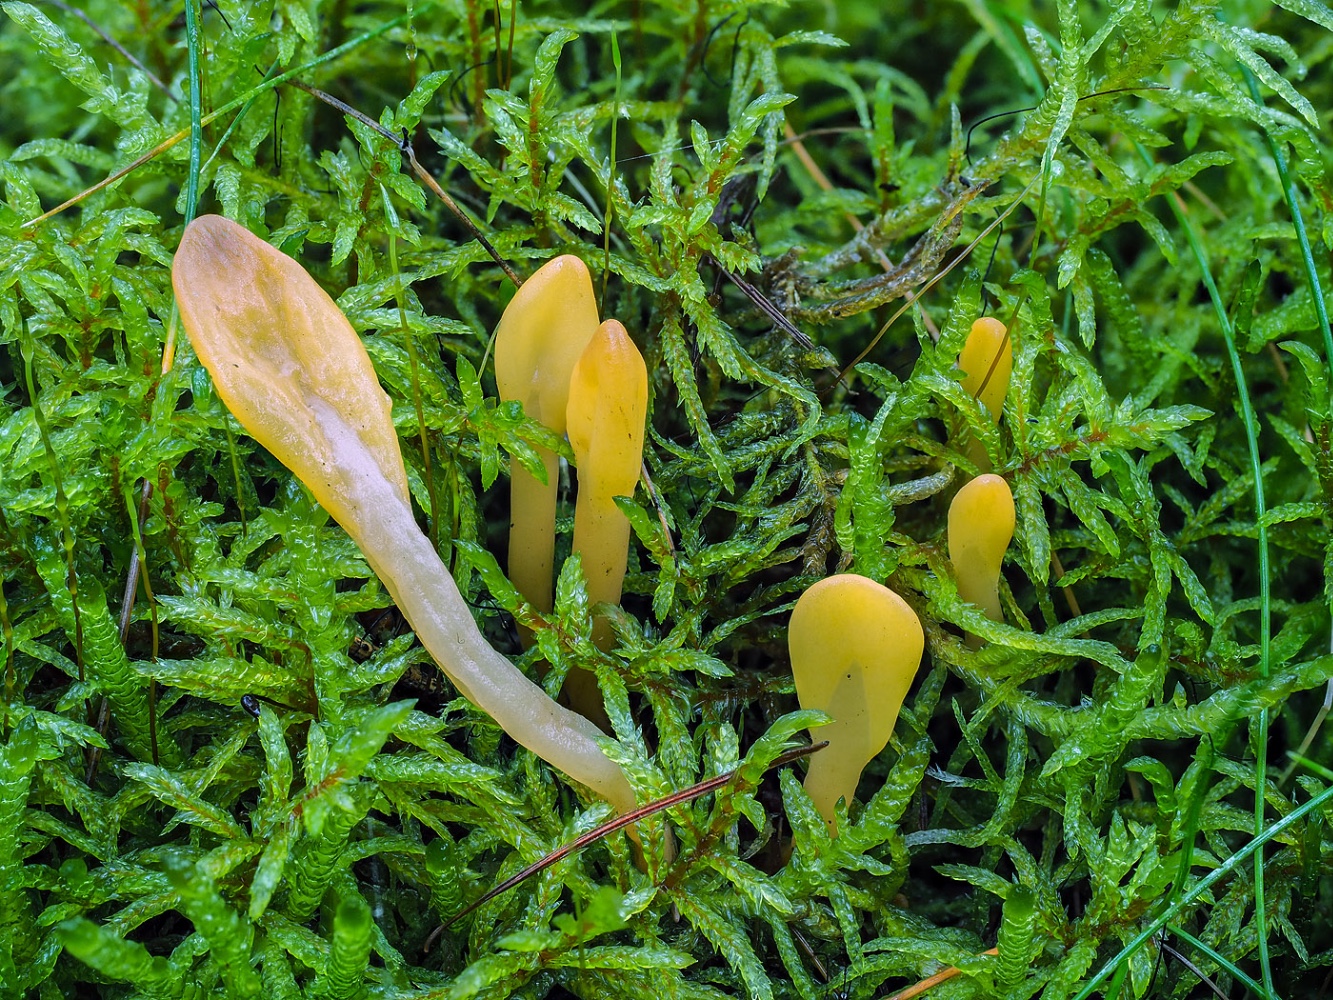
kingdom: Fungi
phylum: Ascomycota
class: Leotiomycetes
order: Rhytismatales
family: Cudoniaceae
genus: Spathularia
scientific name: Spathularia flavida
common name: gul spatelsvamp
